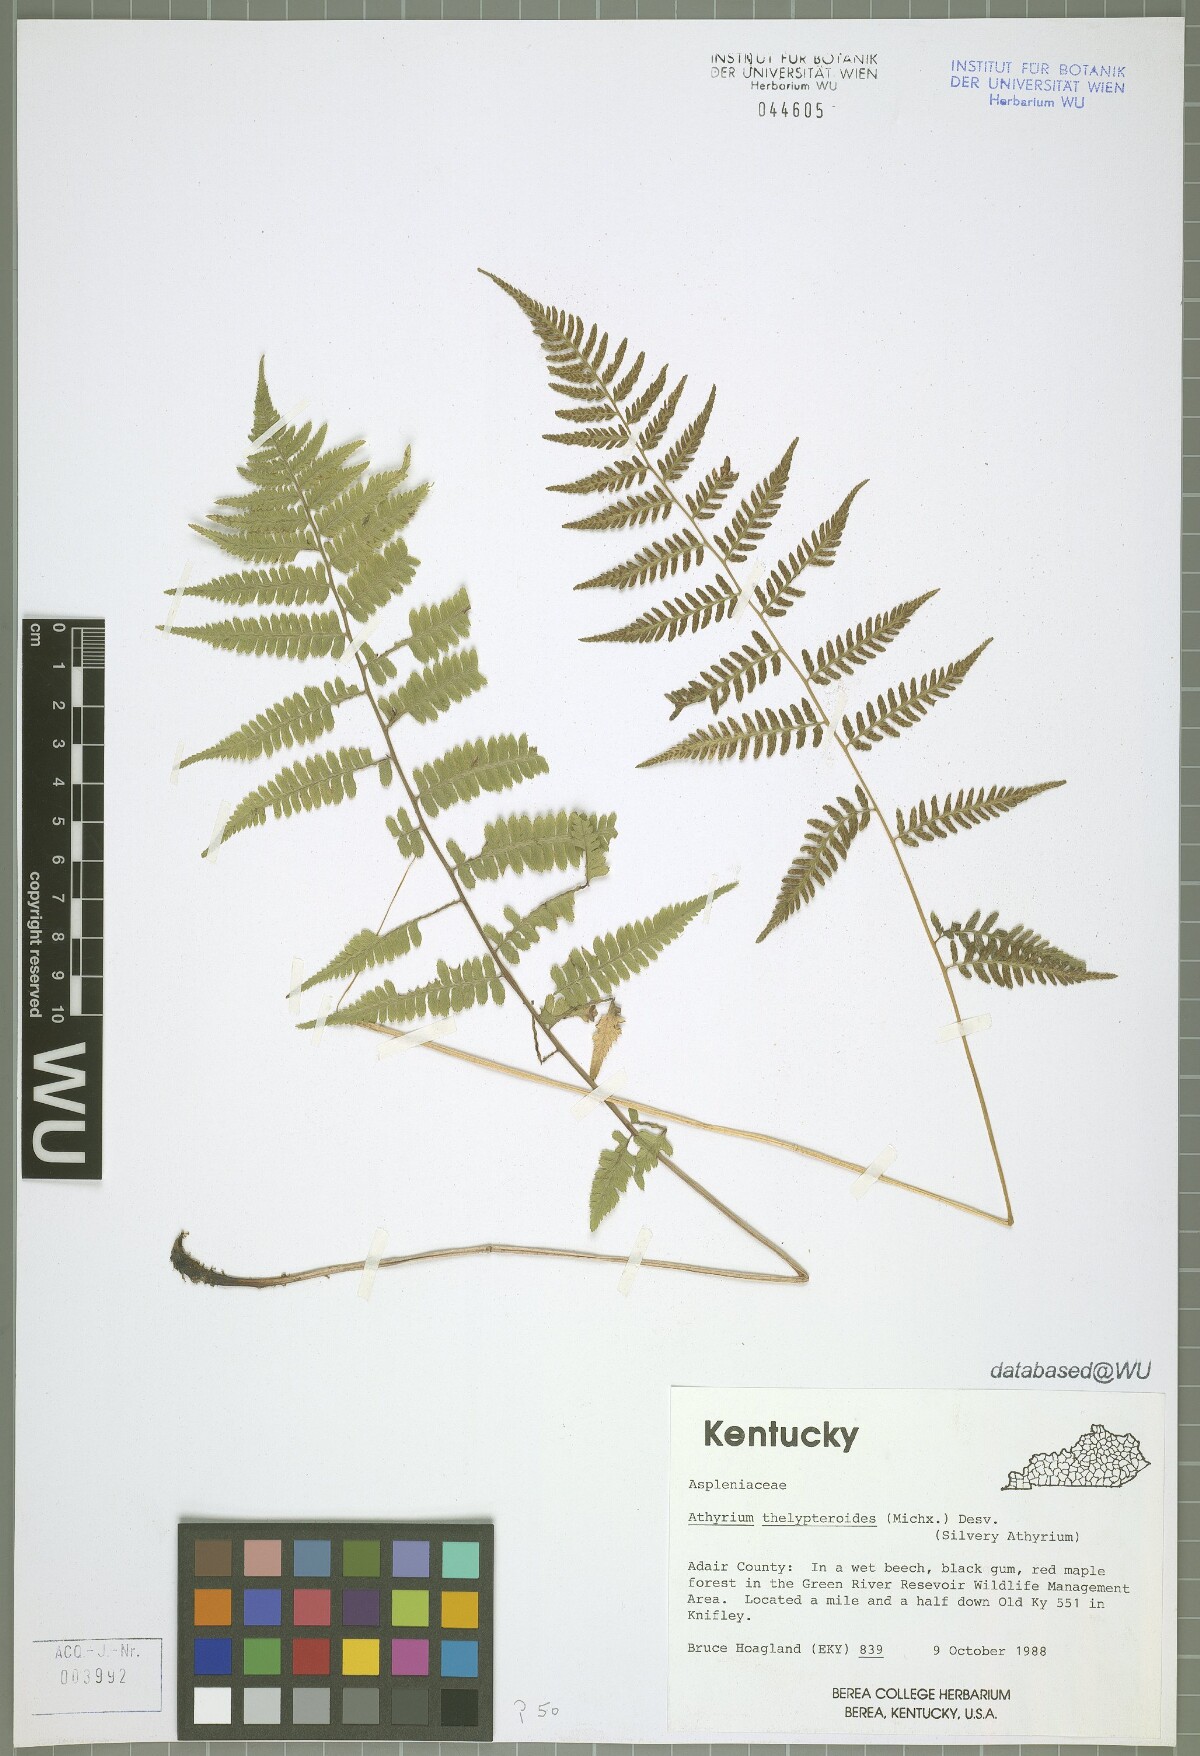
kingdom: Plantae
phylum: Tracheophyta
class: Polypodiopsida
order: Polypodiales
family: Athyriaceae
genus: Deparia
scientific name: Deparia acrostichoides
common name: Silver false spleenwort
